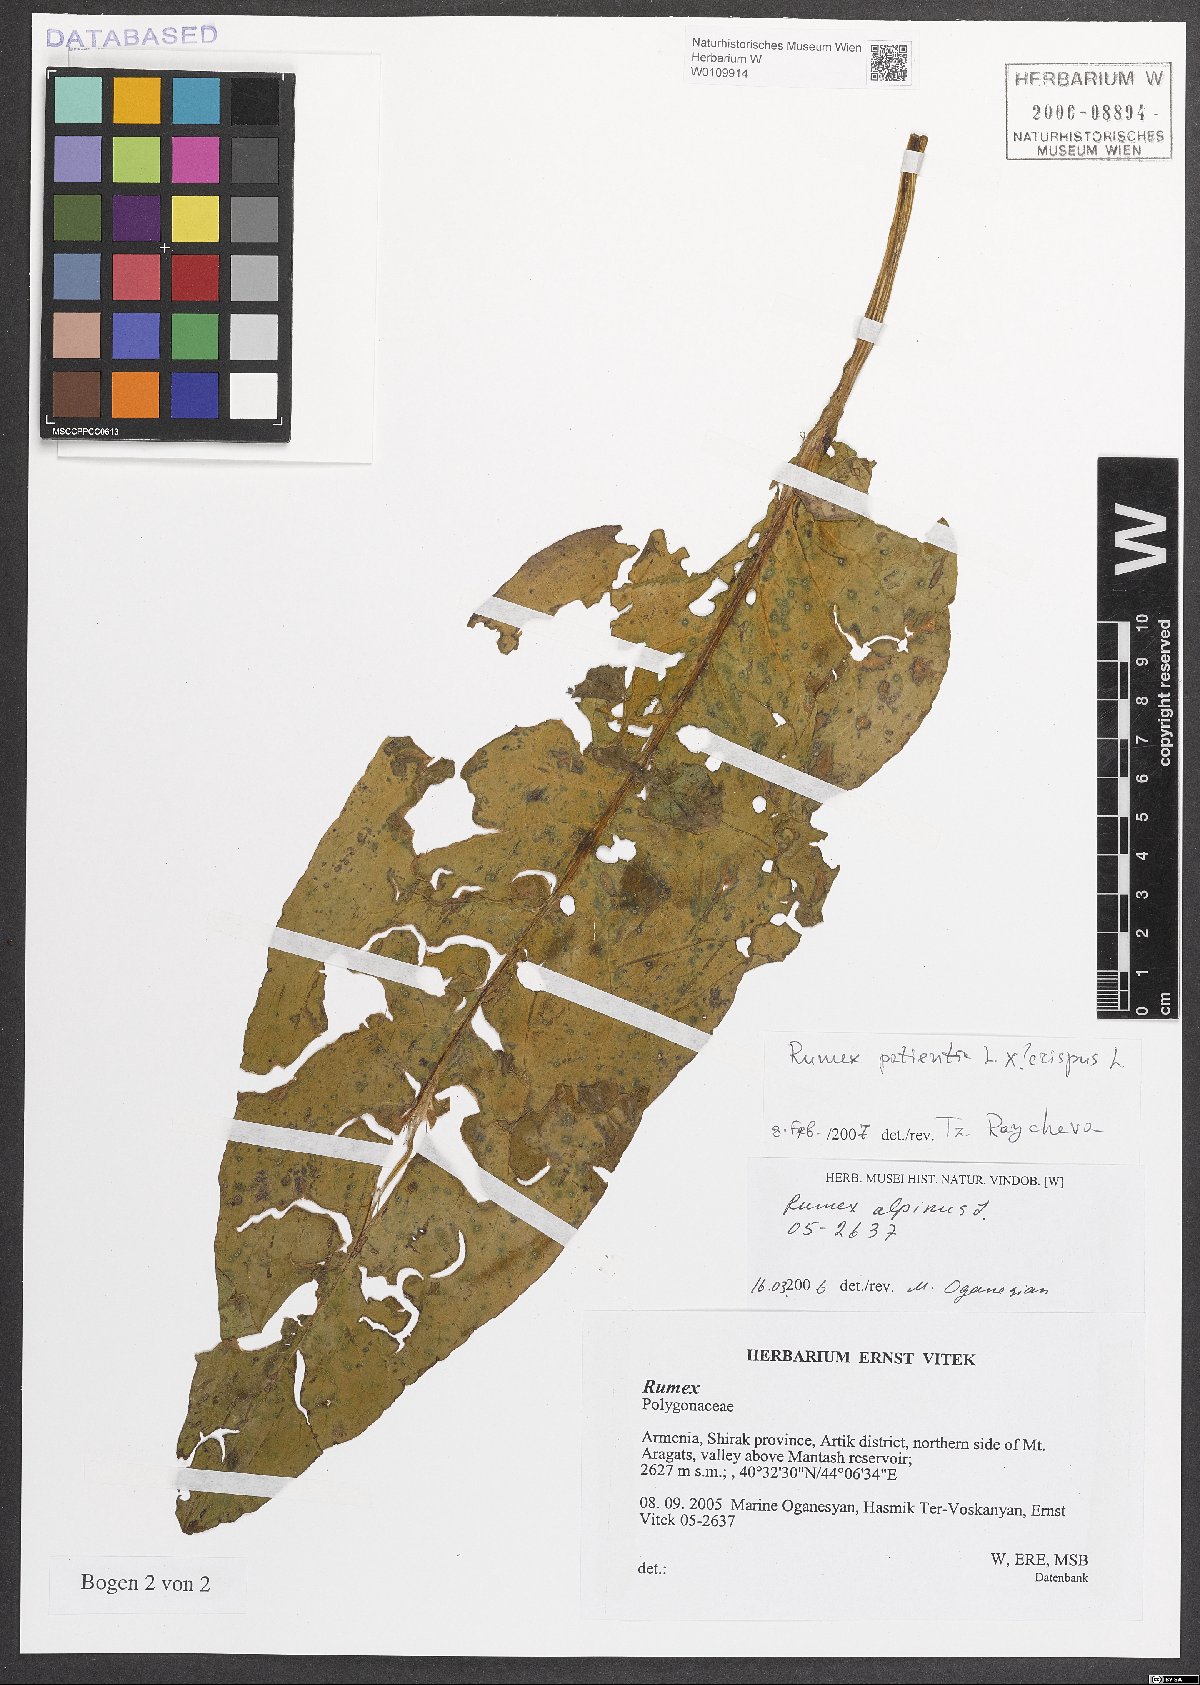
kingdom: Plantae
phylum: Tracheophyta
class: Magnoliopsida
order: Caryophyllales
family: Polygonaceae
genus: Rumex
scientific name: Rumex
